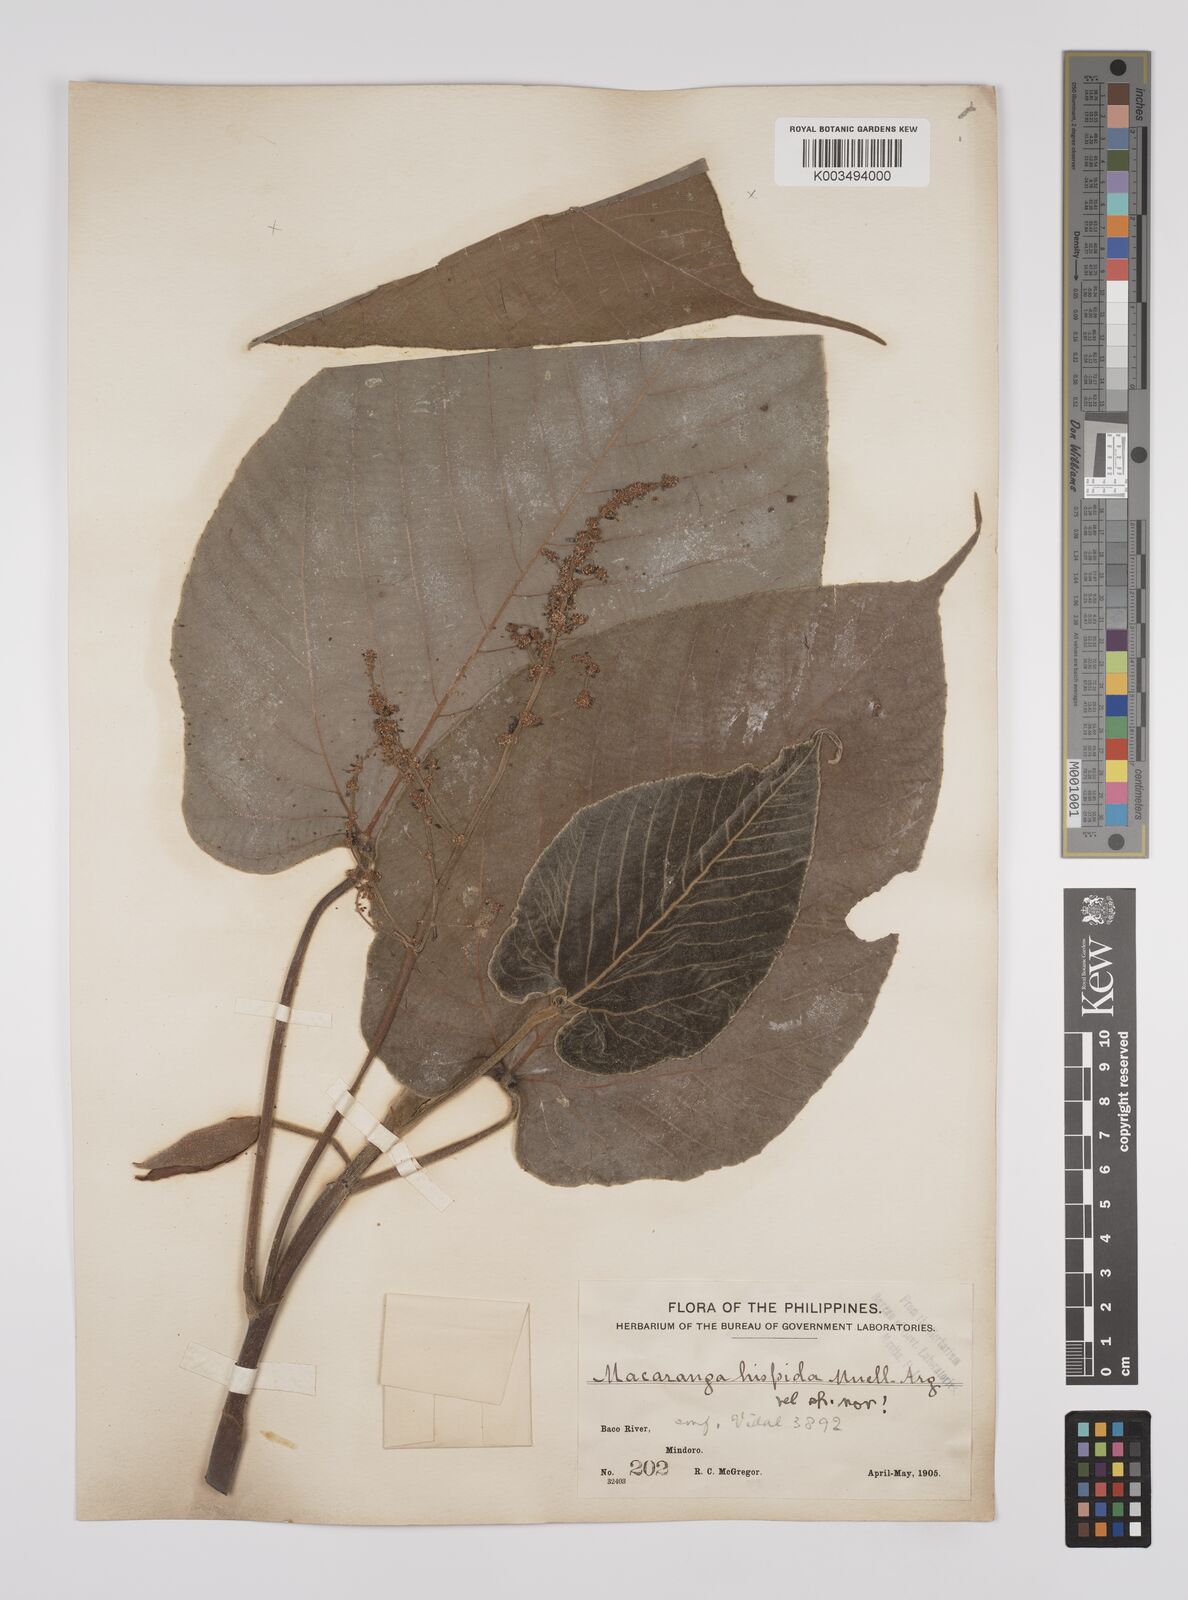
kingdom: Plantae
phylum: Tracheophyta
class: Magnoliopsida
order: Malpighiales
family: Euphorbiaceae
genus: Macaranga
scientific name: Macaranga hispida
